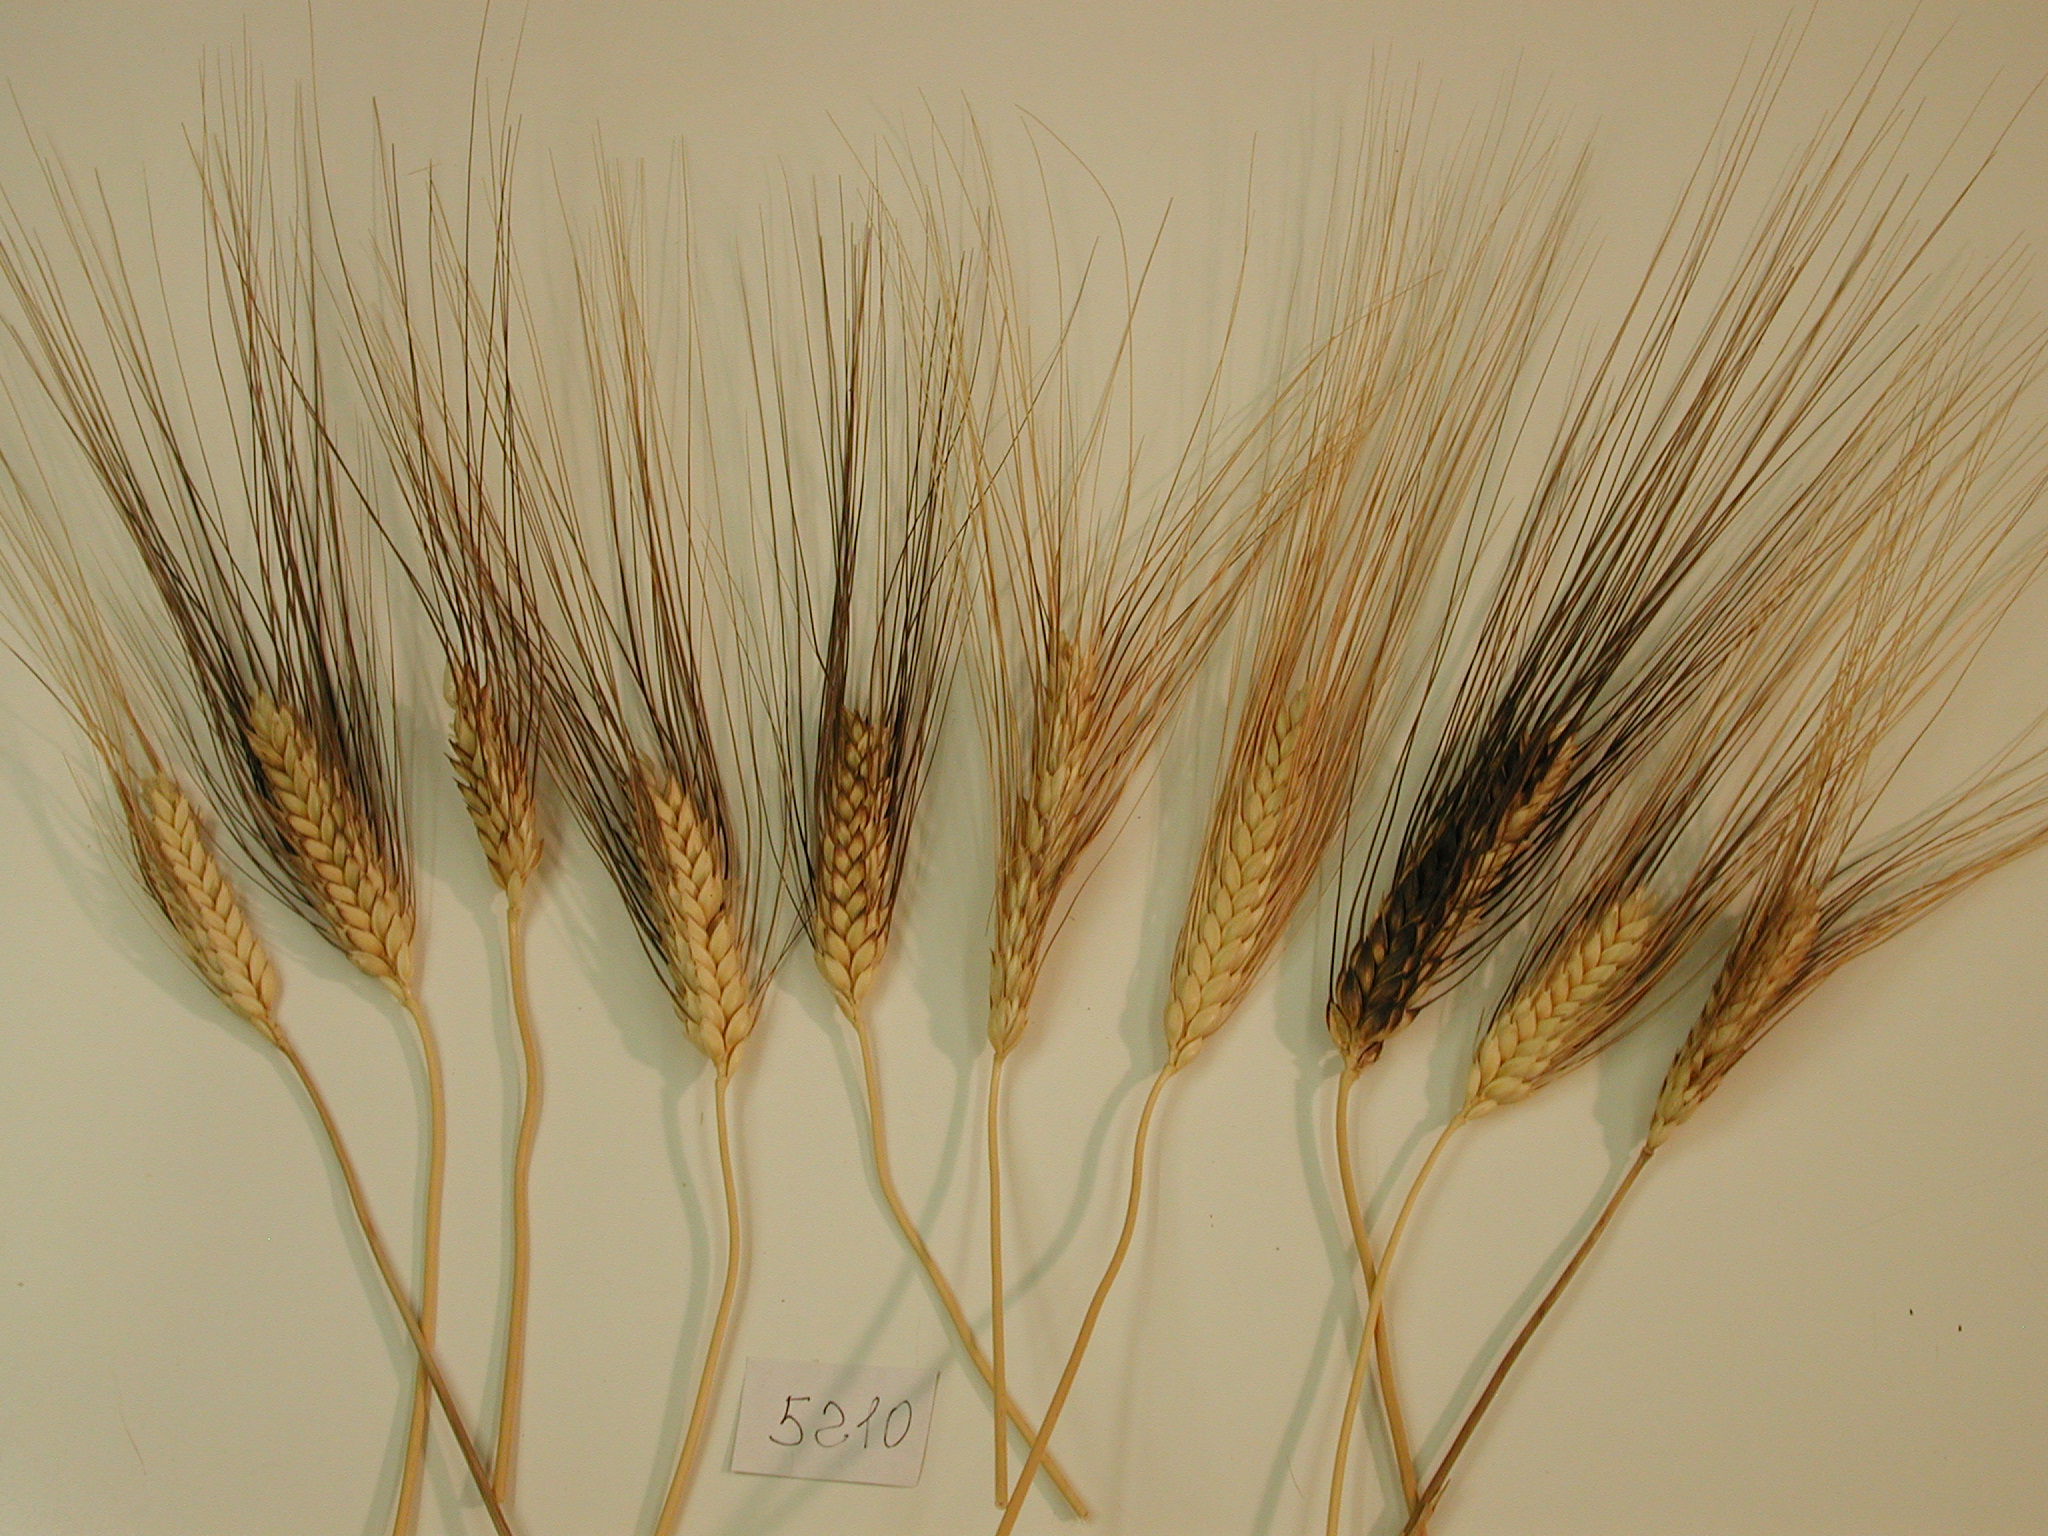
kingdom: Plantae
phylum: Tracheophyta
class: Liliopsida
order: Poales
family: Poaceae
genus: Triticum
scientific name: Triticum turgidum
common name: Wheat
